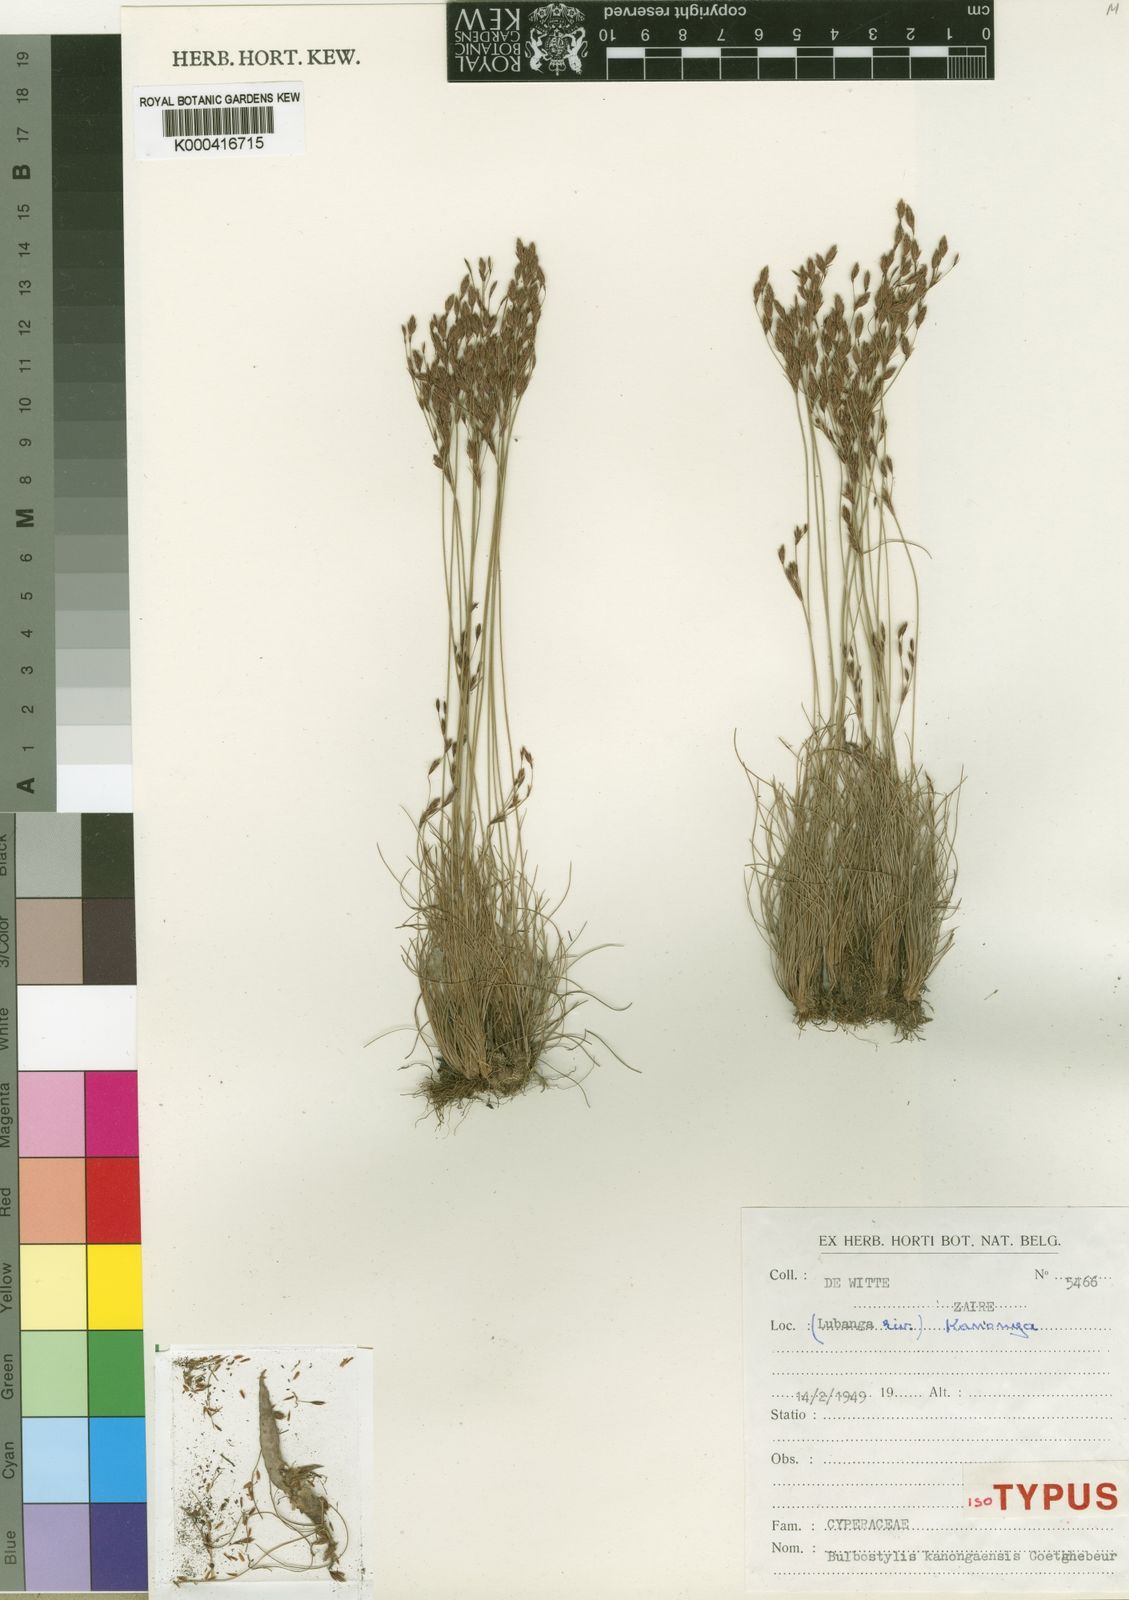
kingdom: Plantae
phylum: Tracheophyta
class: Liliopsida
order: Poales
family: Cyperaceae
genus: Bulbostylis
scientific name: Bulbostylis kanongaensis
